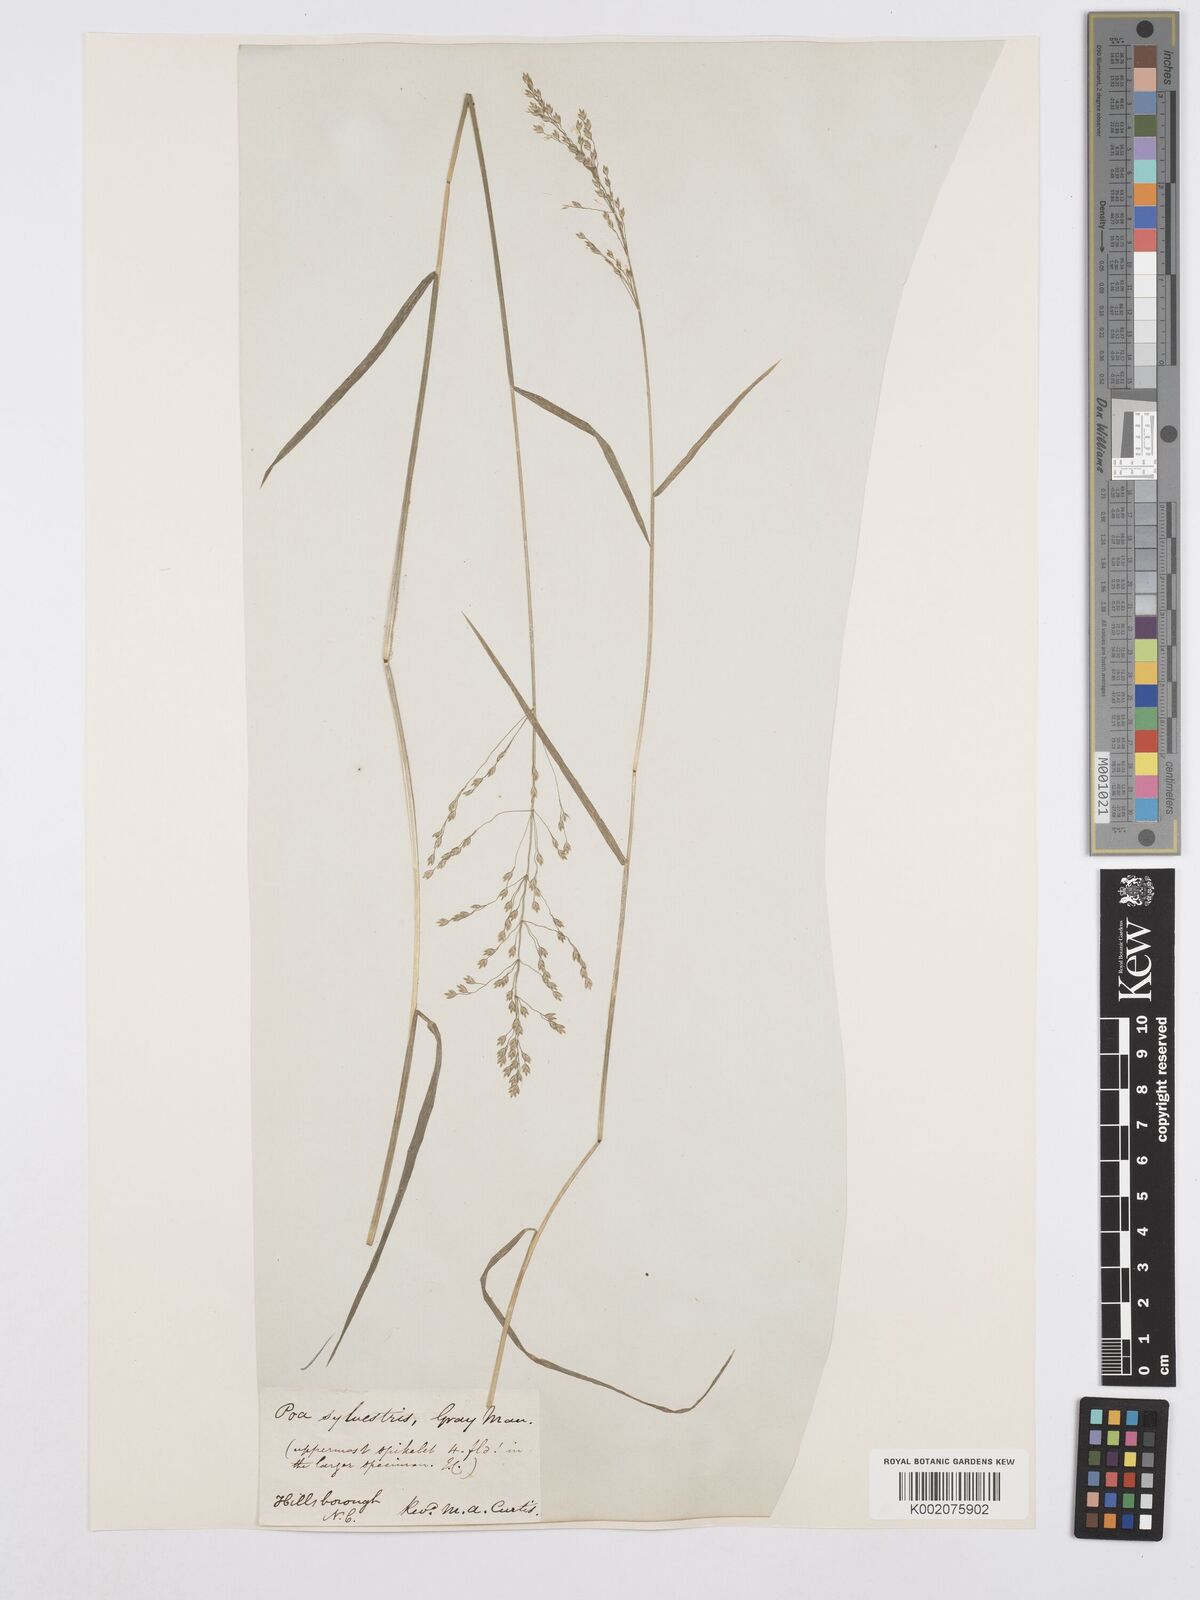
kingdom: Plantae
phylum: Tracheophyta
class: Liliopsida
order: Poales
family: Poaceae
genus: Poa
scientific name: Poa sylvestris
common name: North american woodland bluegrass
